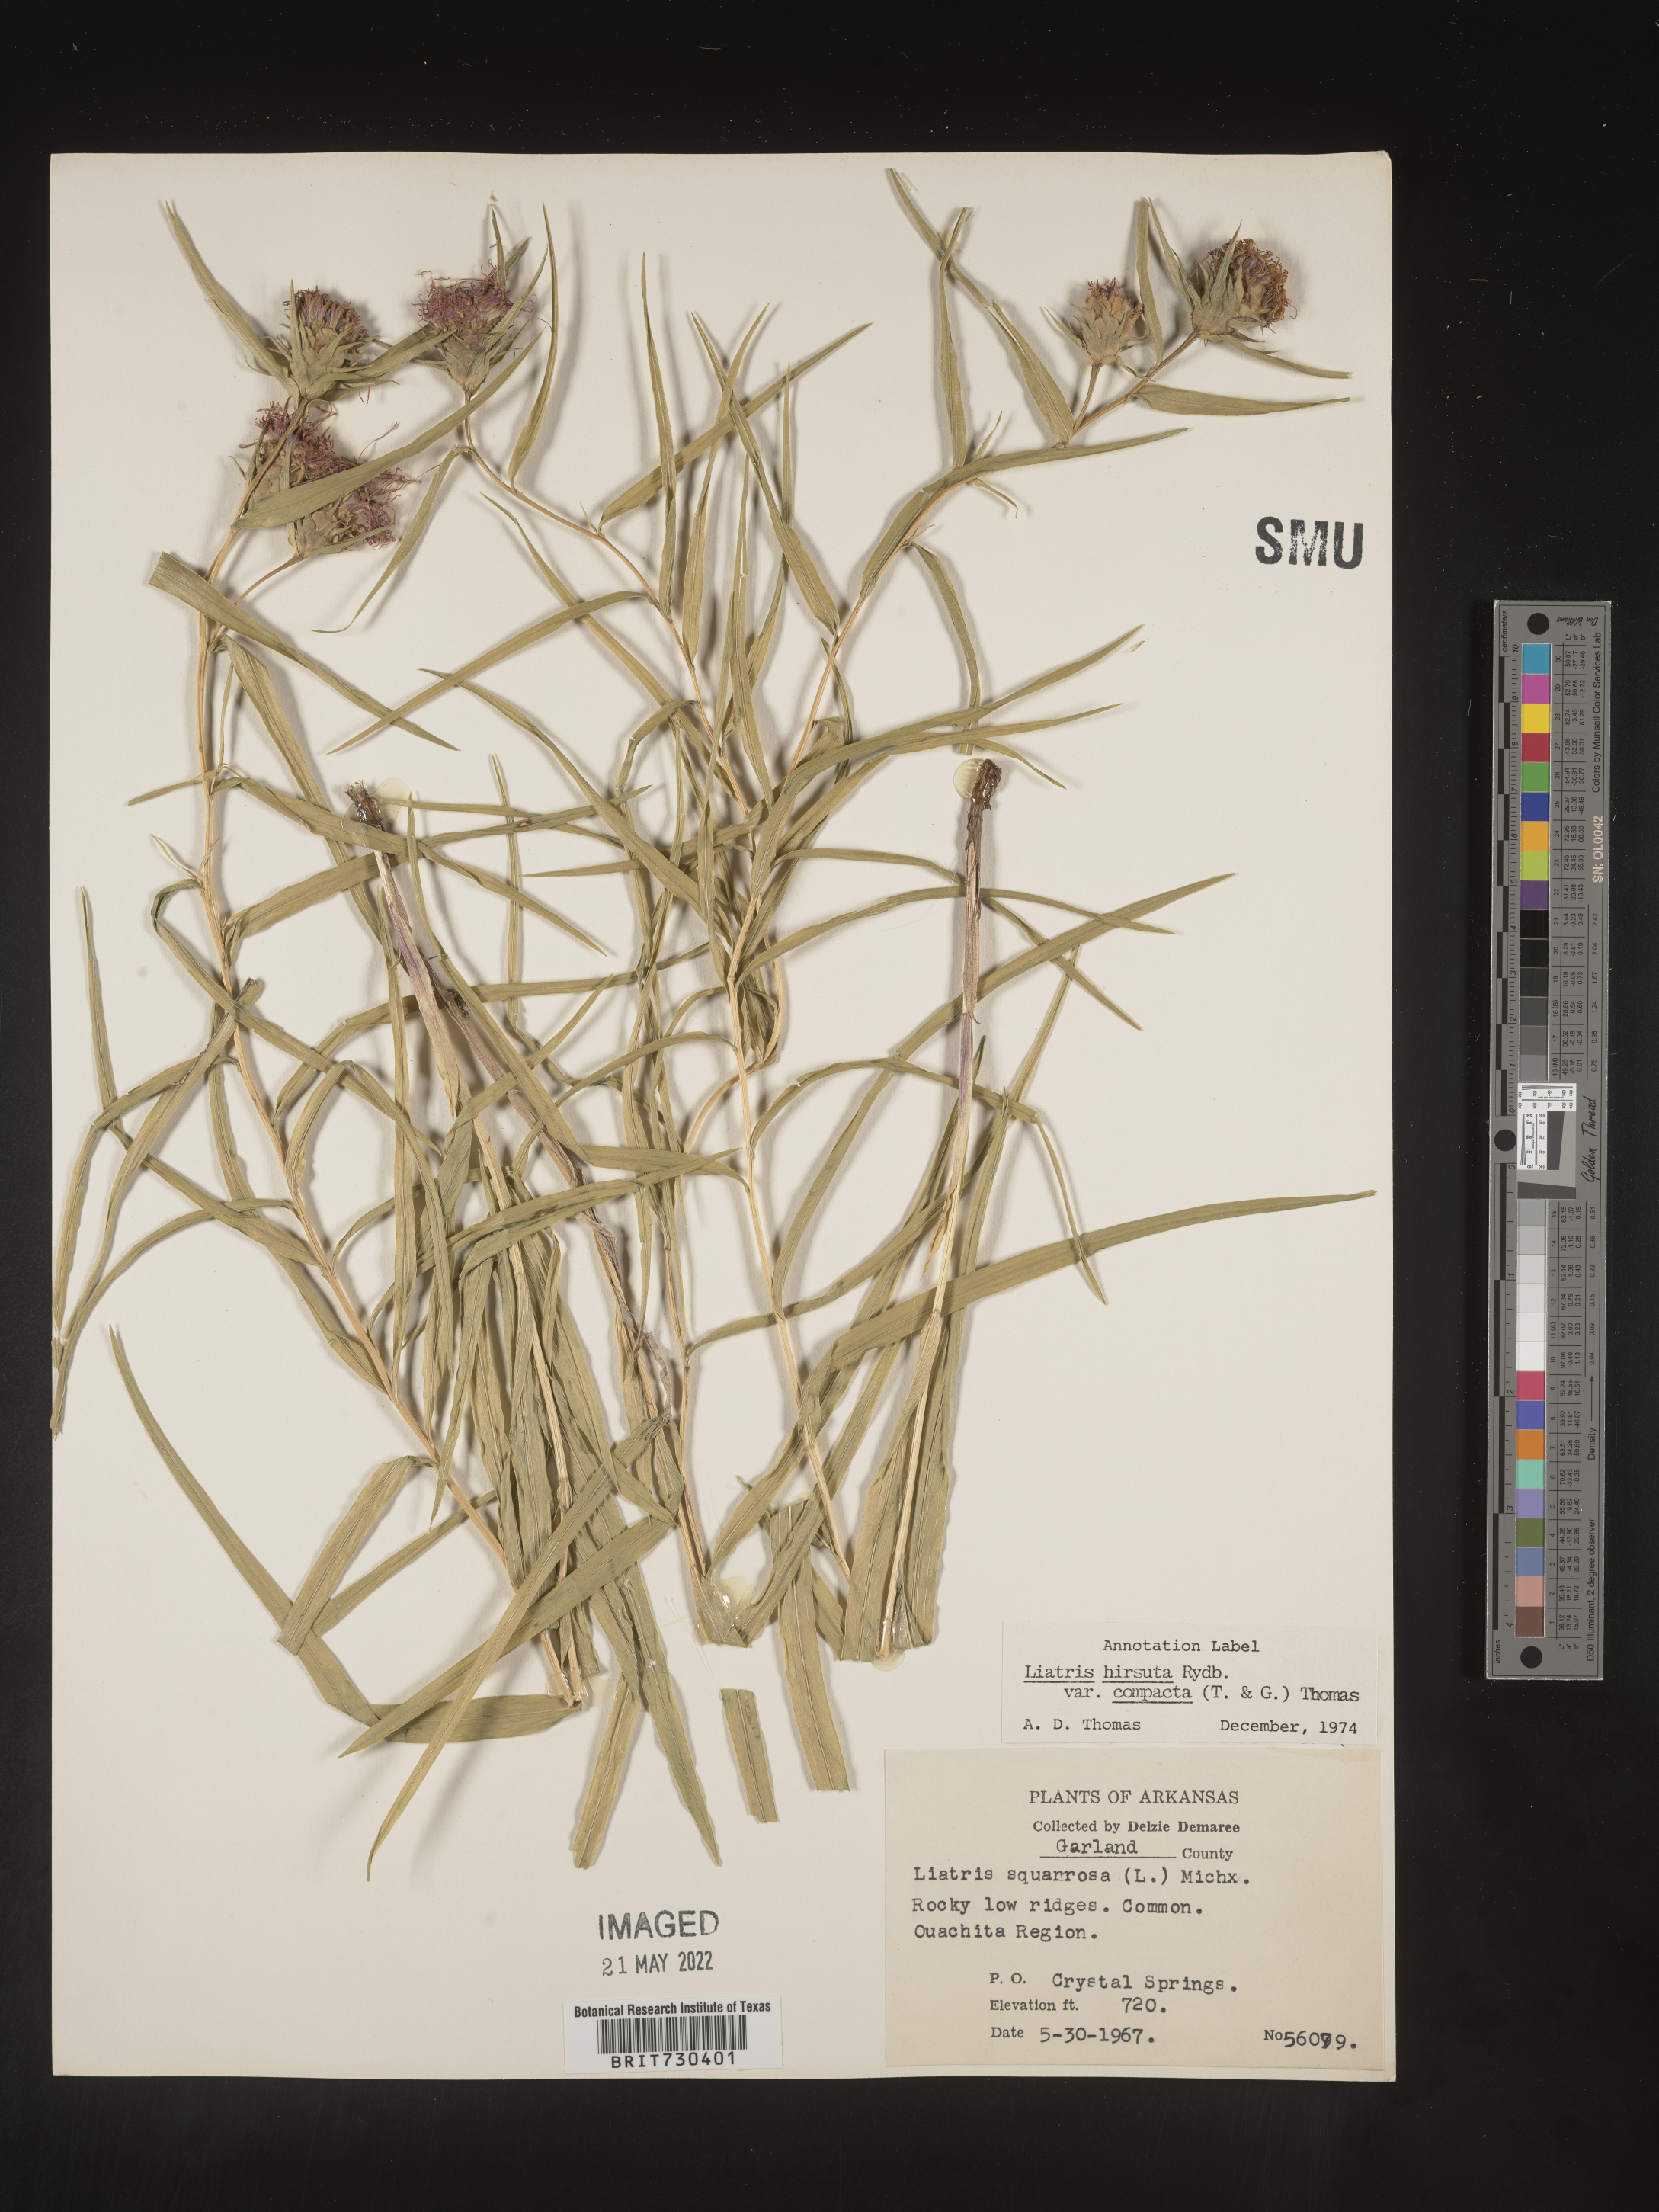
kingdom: Plantae
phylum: Tracheophyta
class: Magnoliopsida
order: Asterales
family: Asteraceae
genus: Liatris
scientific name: Liatris compacta
